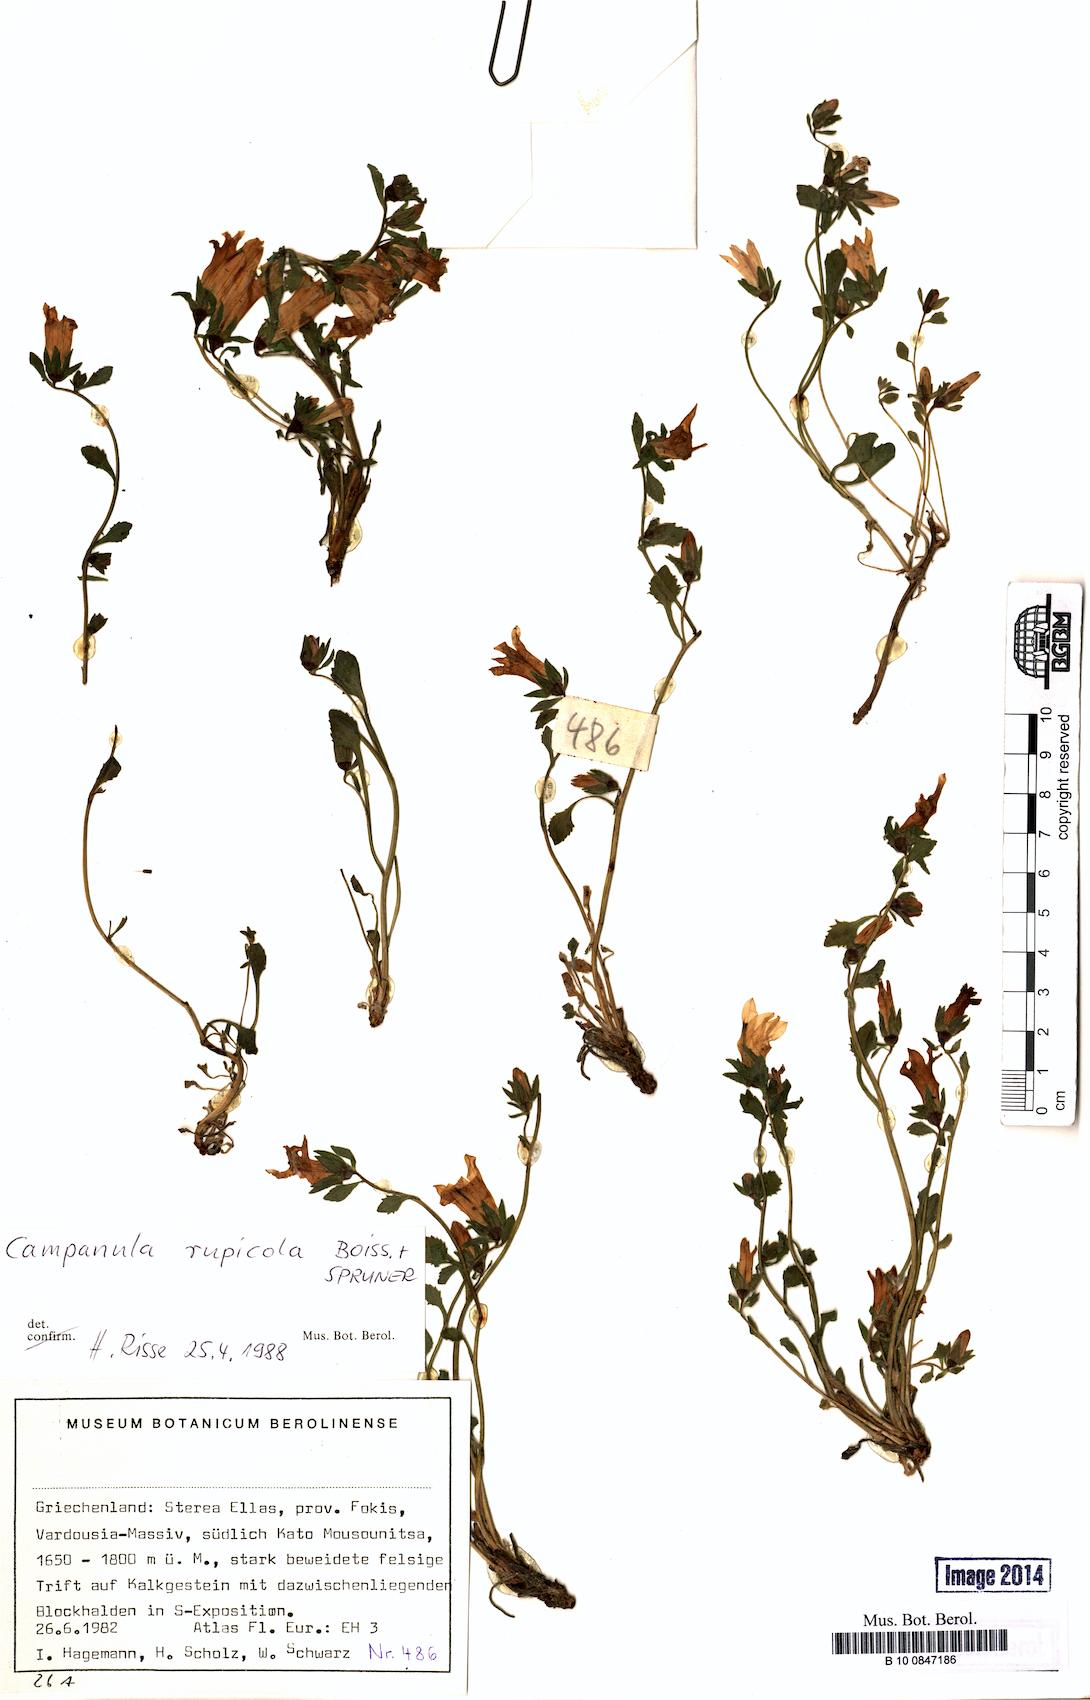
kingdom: Plantae
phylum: Tracheophyta
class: Magnoliopsida
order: Asterales
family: Campanulaceae
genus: Campanula
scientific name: Campanula rupicola
